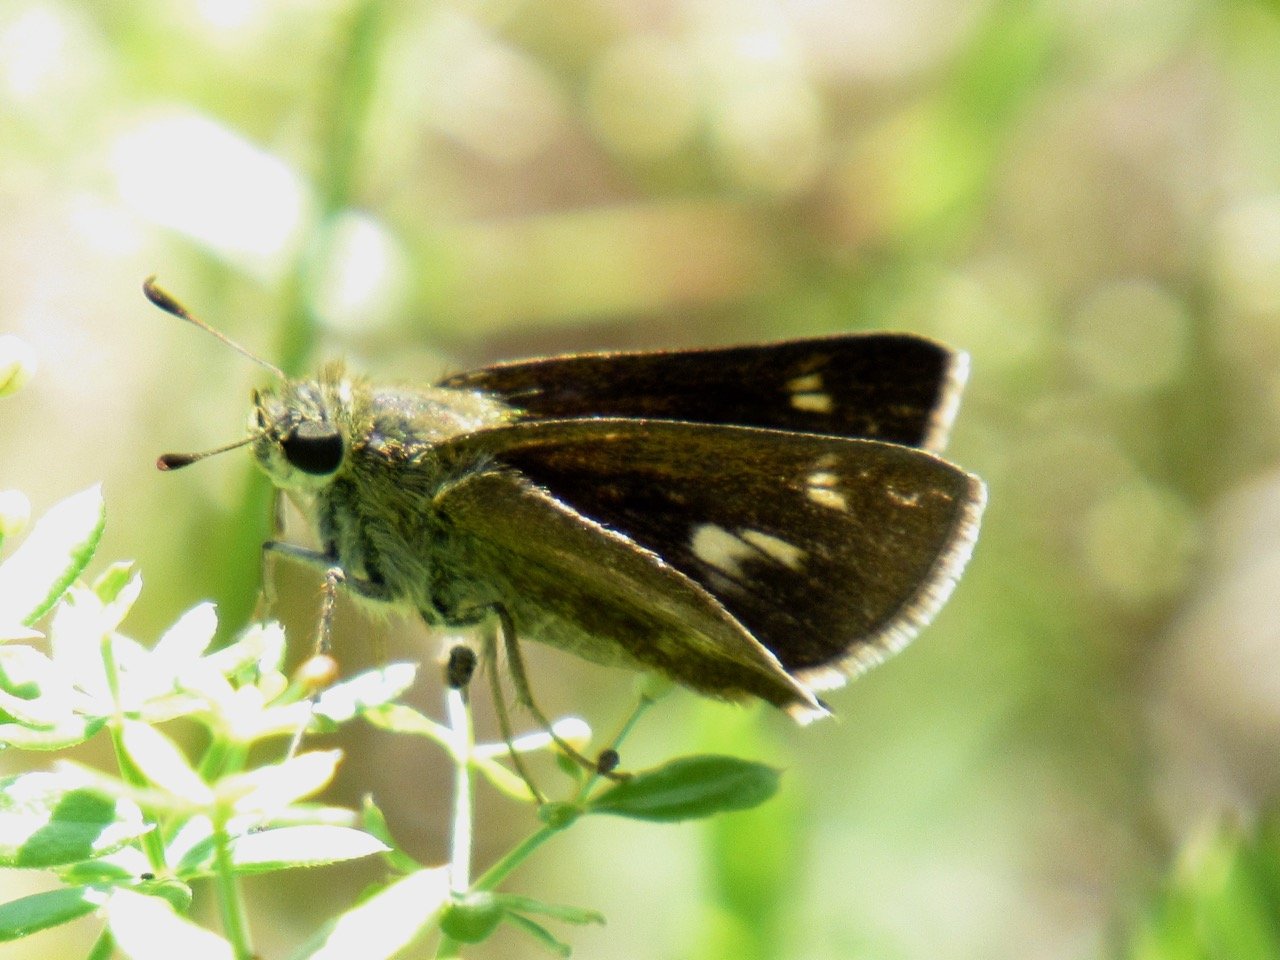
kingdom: Animalia
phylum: Arthropoda
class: Insecta
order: Lepidoptera
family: Hesperiidae
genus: Polites
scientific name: Polites egeremet
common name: Northern Broken-Dash
